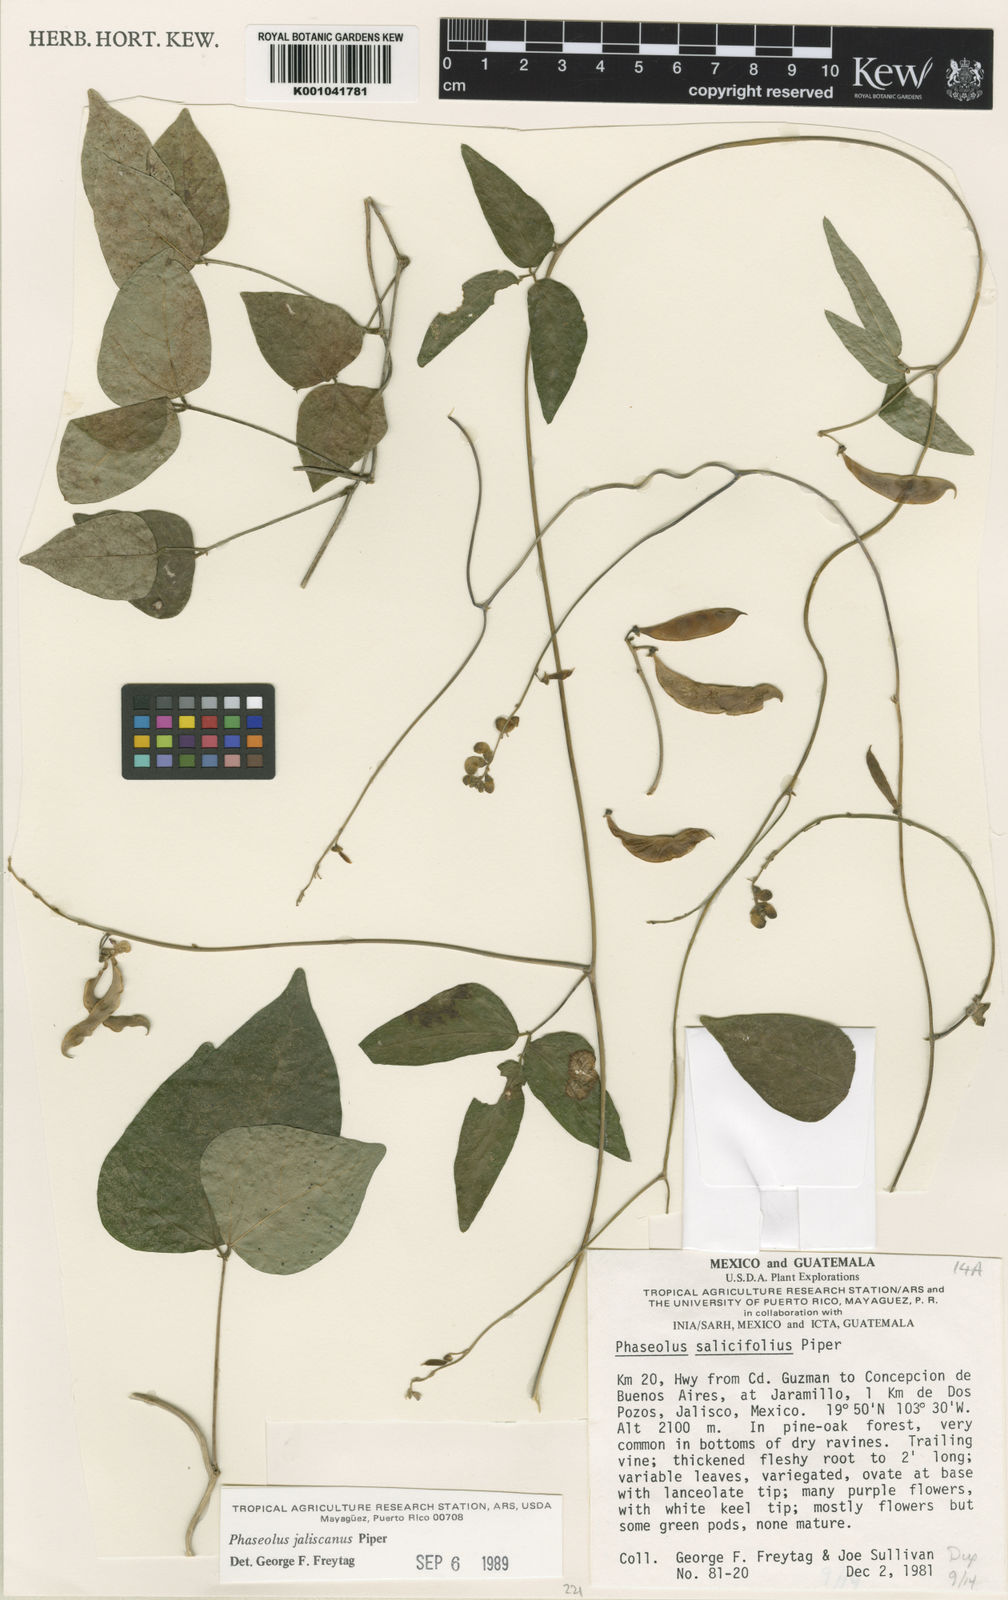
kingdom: Plantae
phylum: Tracheophyta
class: Magnoliopsida
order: Fabales
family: Fabaceae
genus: Phaseolus
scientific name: Phaseolus jaliscanus
